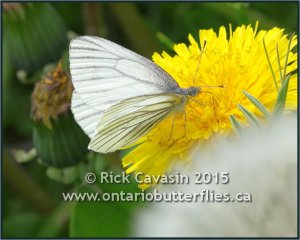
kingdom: Animalia
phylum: Arthropoda
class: Insecta
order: Lepidoptera
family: Pieridae
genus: Pieris
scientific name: Pieris oleracea
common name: Mustard White
